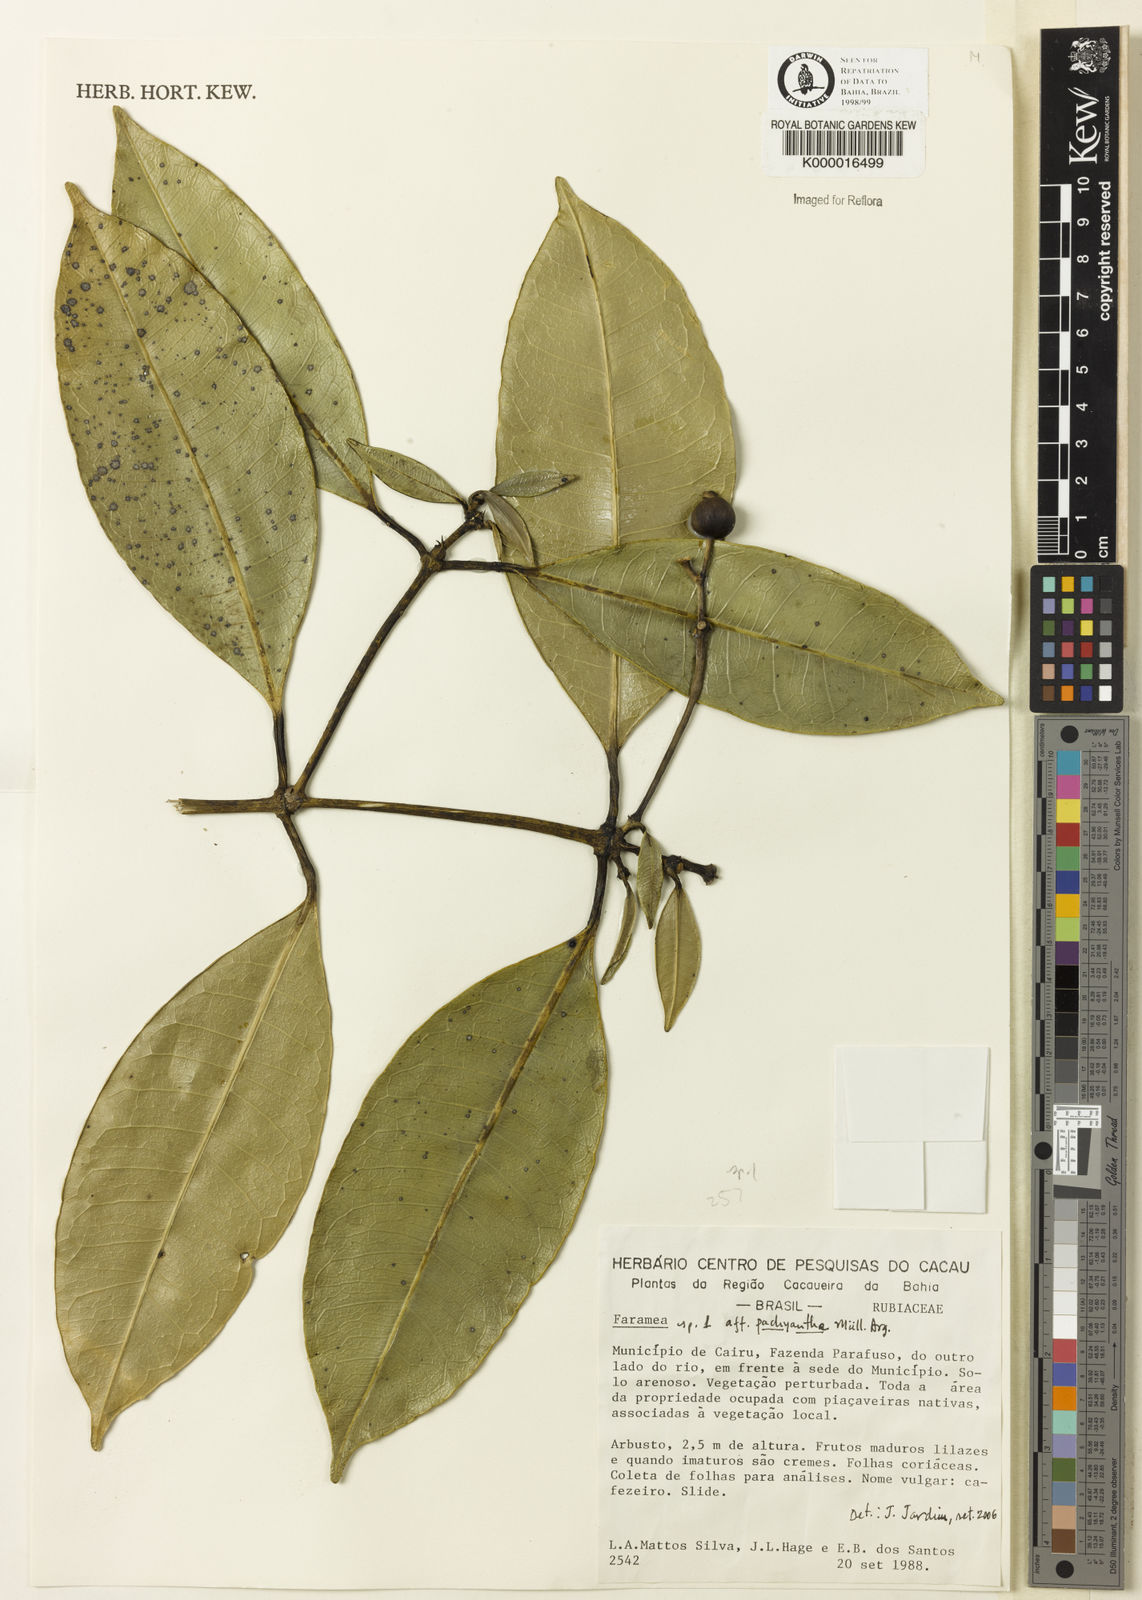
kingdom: Plantae
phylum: Tracheophyta
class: Magnoliopsida
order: Gentianales
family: Rubiaceae
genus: Faramea
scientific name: Faramea
